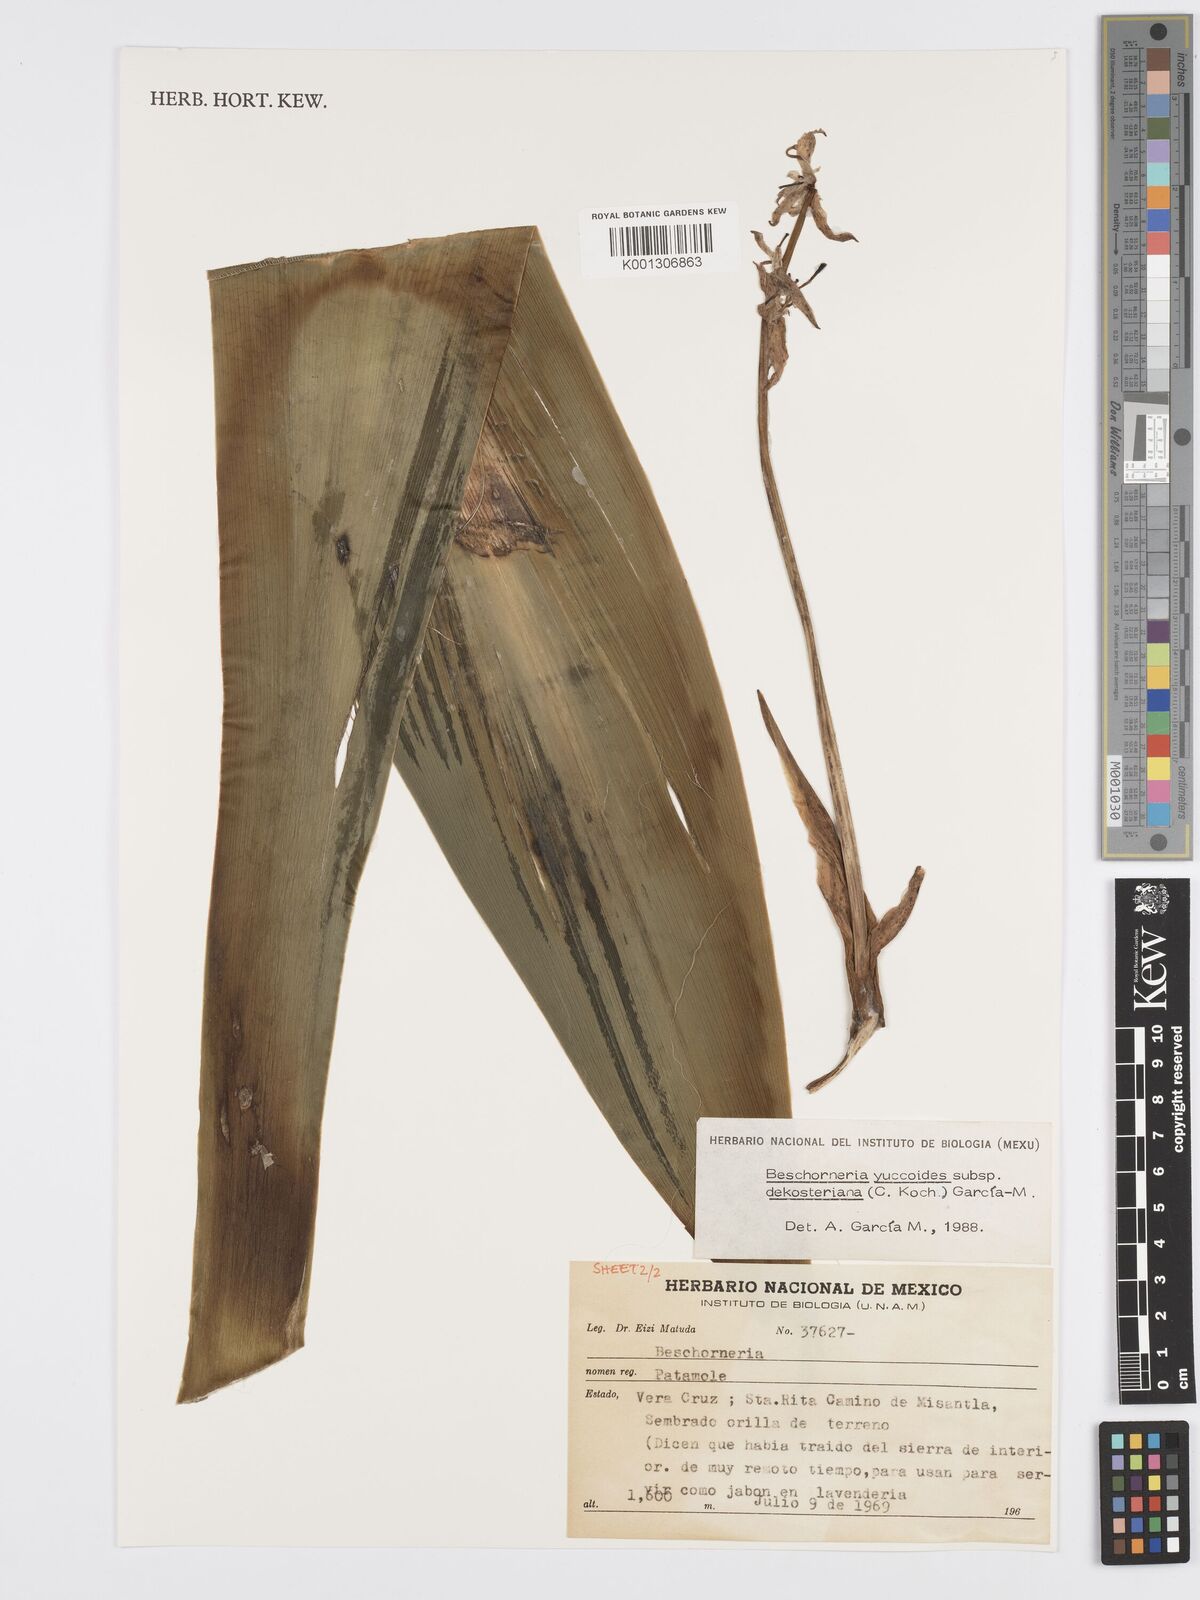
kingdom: Plantae
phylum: Tracheophyta
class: Liliopsida
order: Asparagales
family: Asparagaceae
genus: Beschorneria
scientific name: Beschorneria yuccoides
